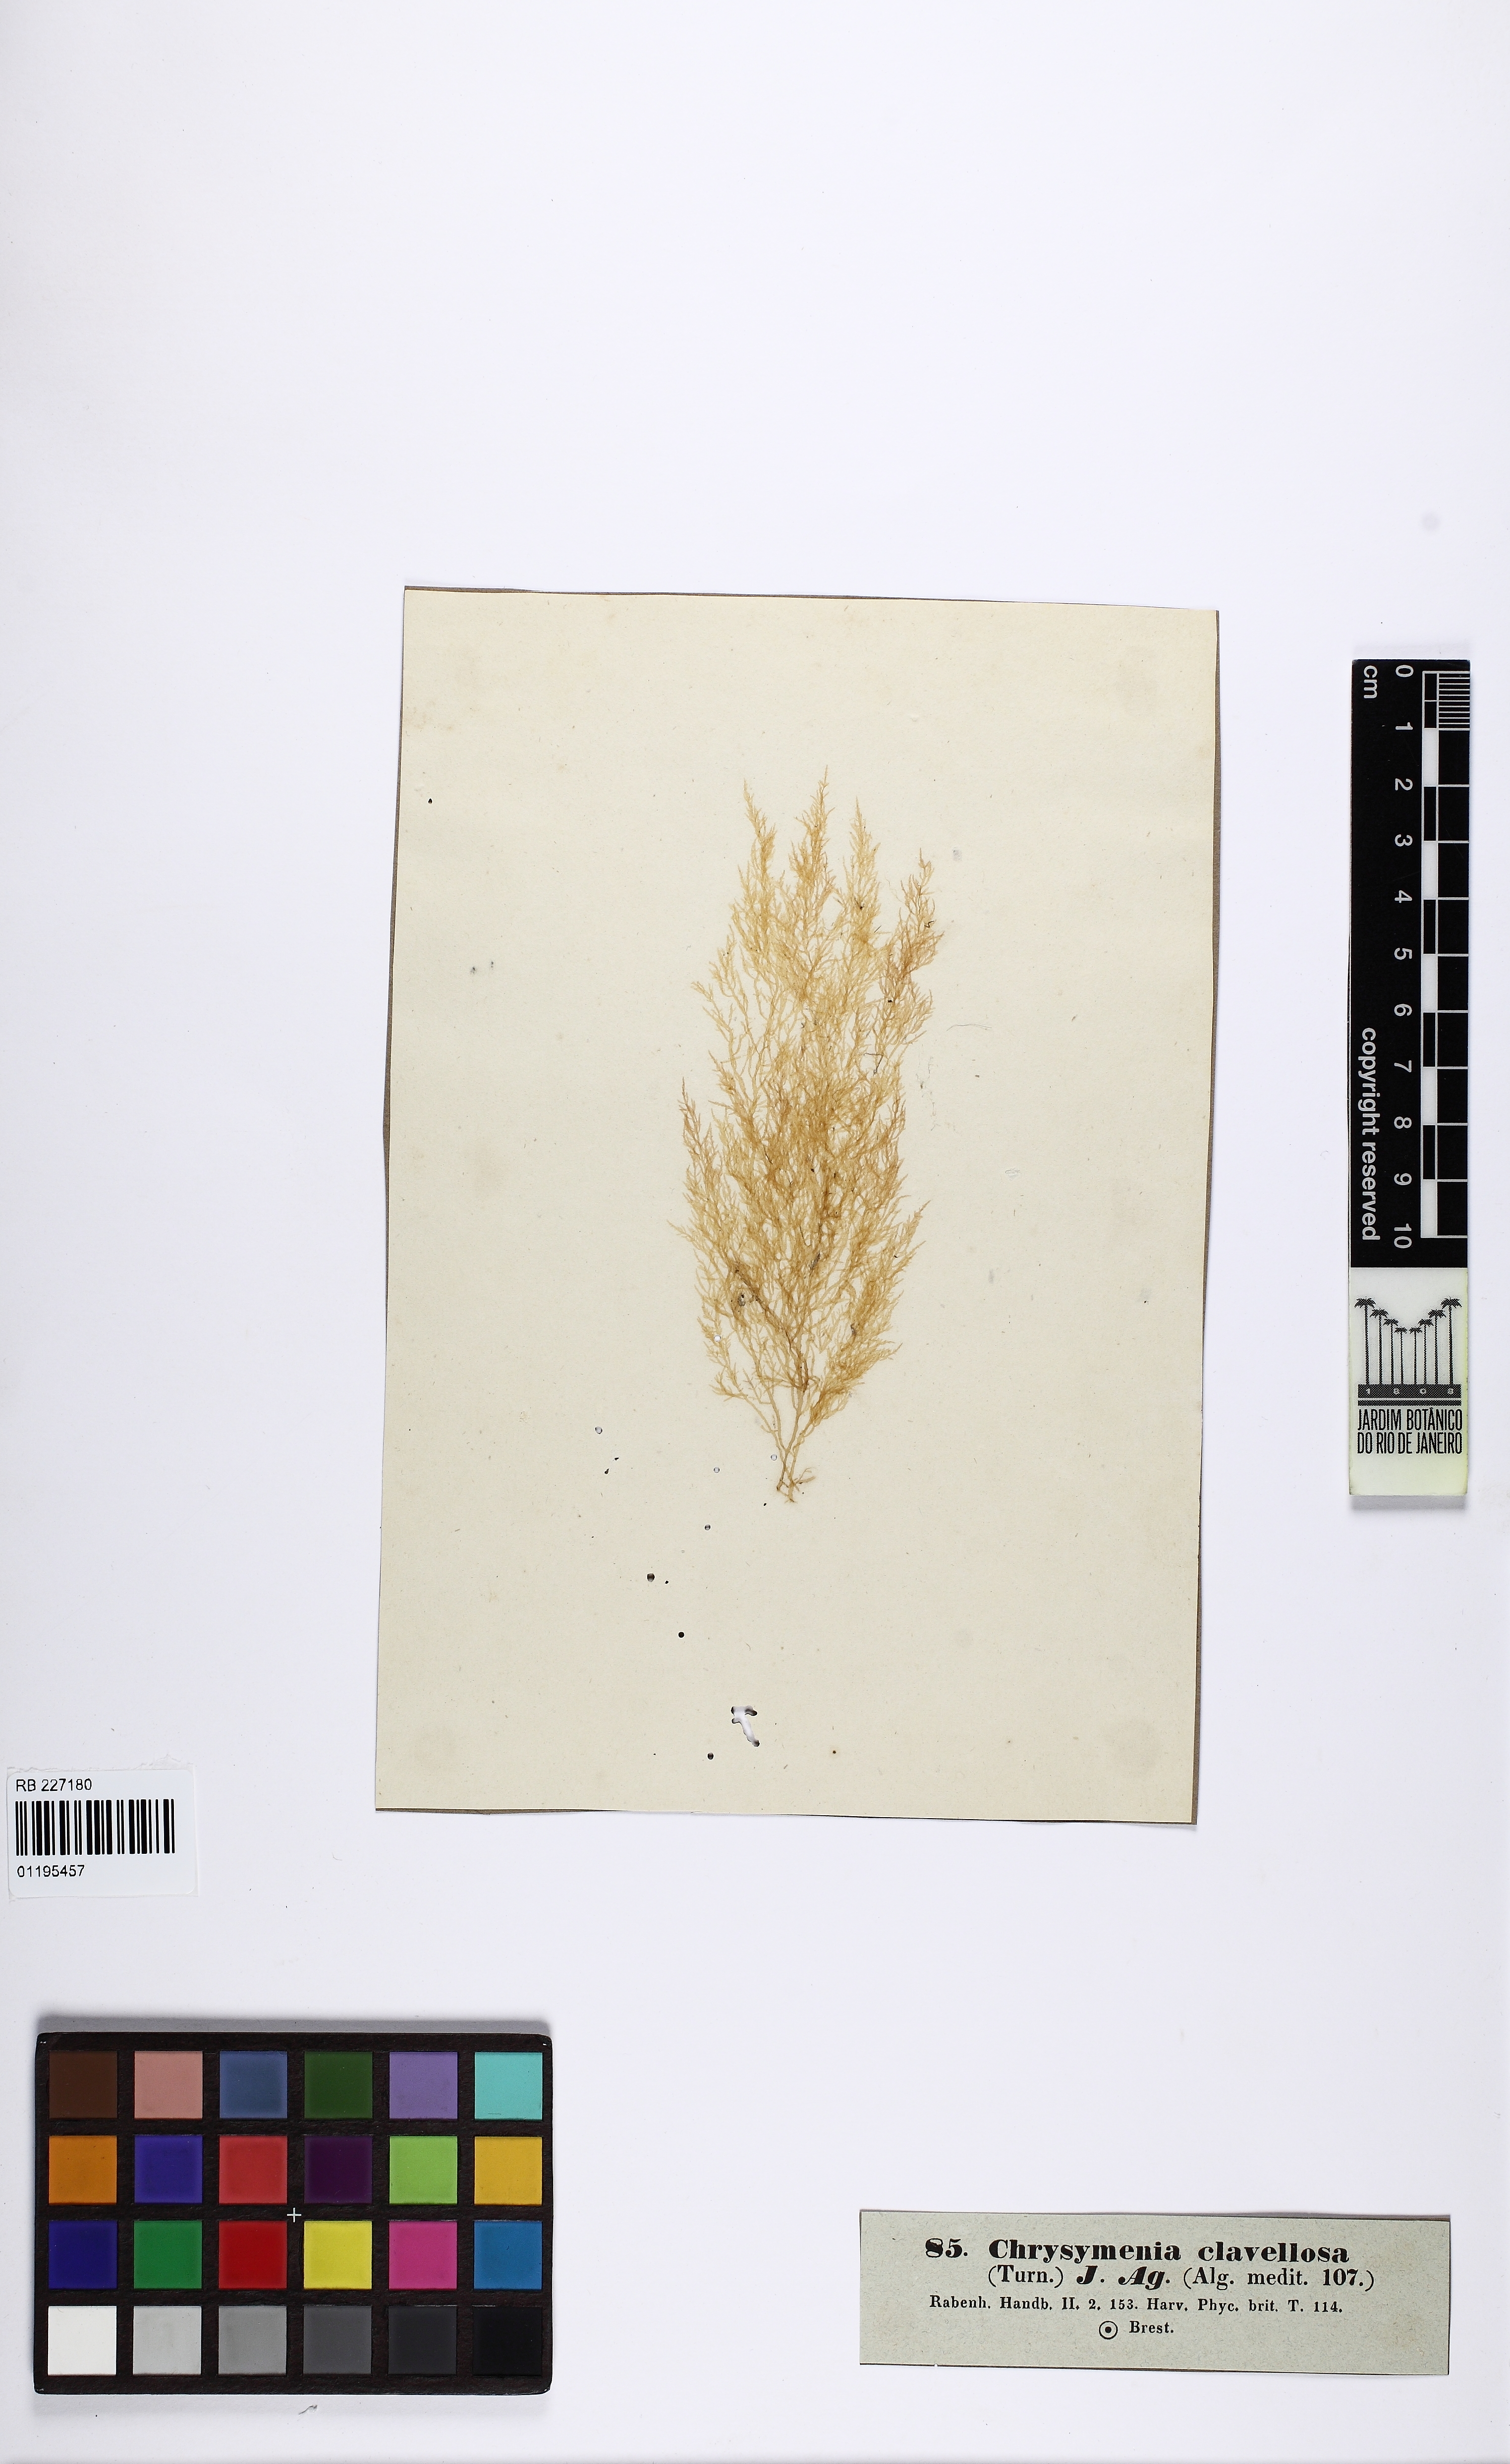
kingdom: Plantae
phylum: Rhodophyta
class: Florideophyceae
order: Rhodymeniales
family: Lomentariaceae
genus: Lomentaria
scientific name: Lomentaria clavellosa
